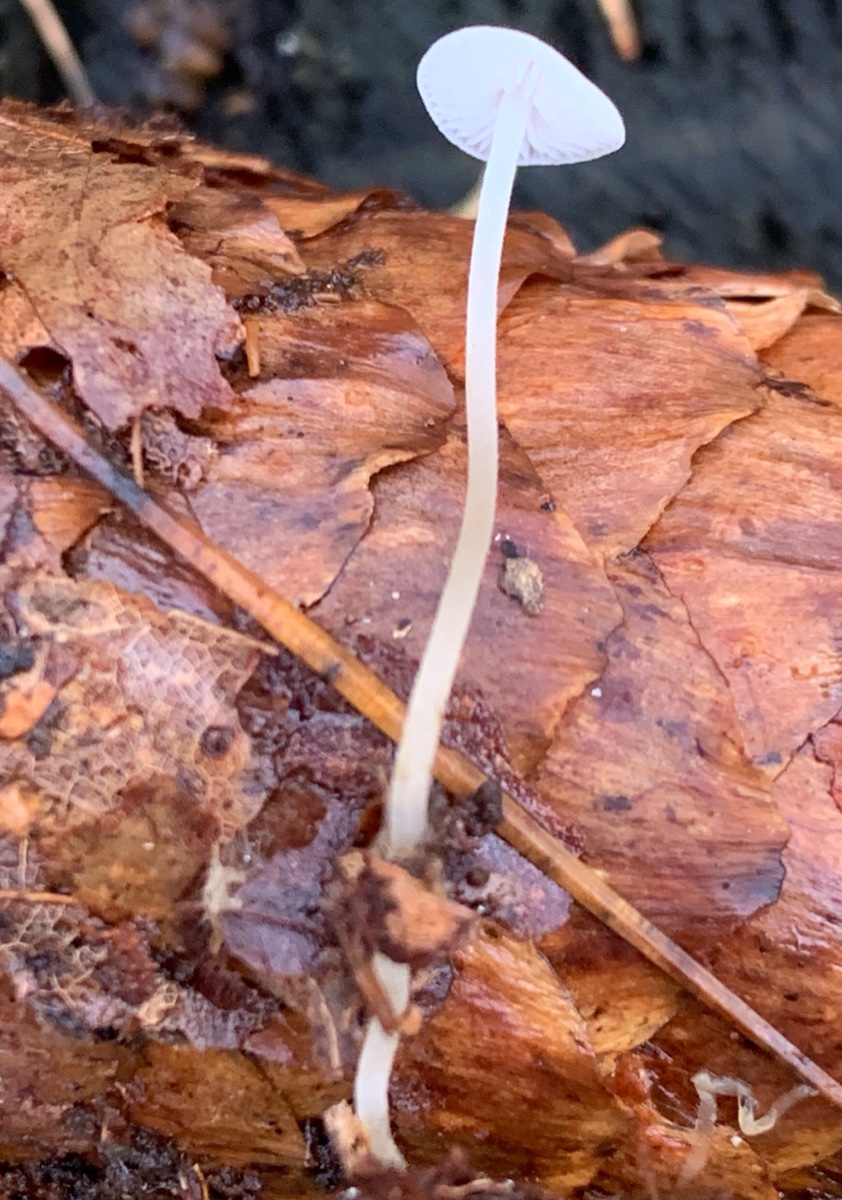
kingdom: Fungi
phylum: Basidiomycota
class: Agaricomycetes
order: Agaricales
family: Physalacriaceae
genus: Strobilurus
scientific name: Strobilurus esculentus
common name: gran-koglehat
